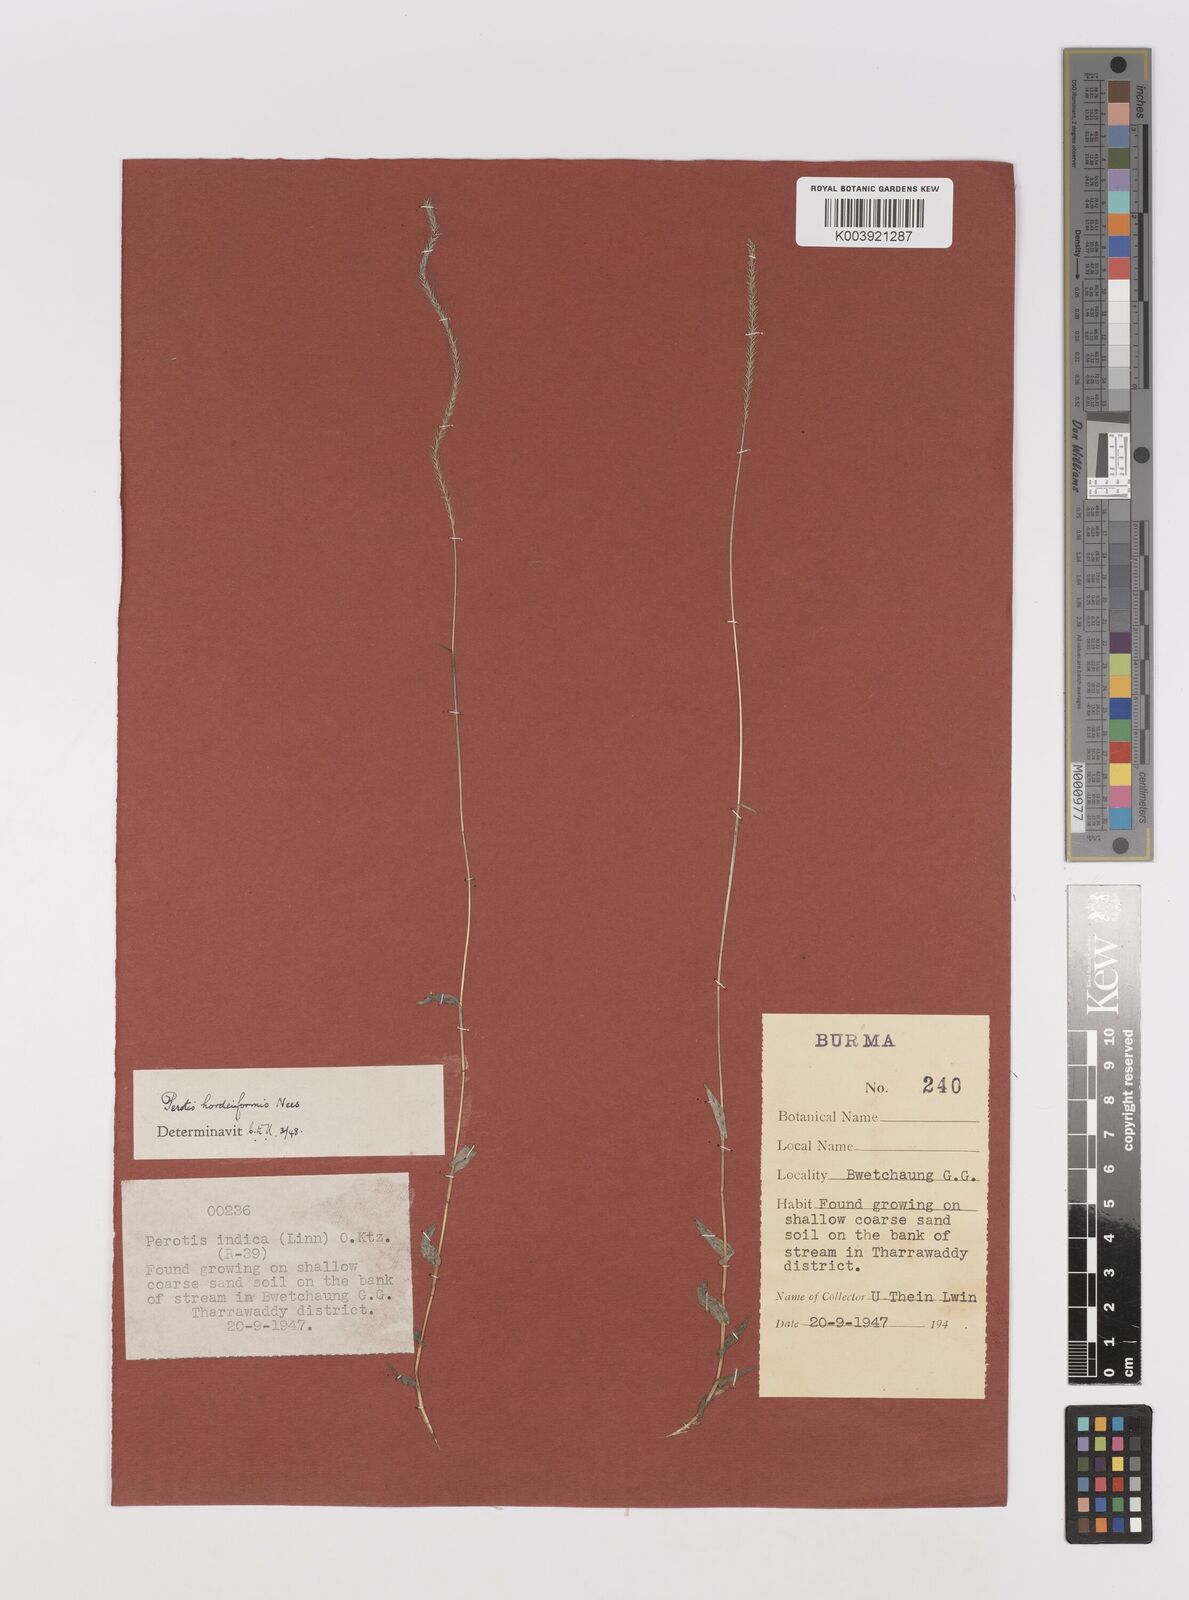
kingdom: Plantae
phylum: Tracheophyta
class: Liliopsida
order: Poales
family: Poaceae
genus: Perotis
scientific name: Perotis hordeiformis
